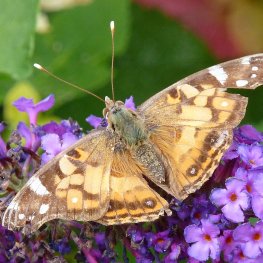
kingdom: Animalia
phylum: Arthropoda
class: Insecta
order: Lepidoptera
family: Nymphalidae
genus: Vanessa
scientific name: Vanessa virginiensis
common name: American Lady
